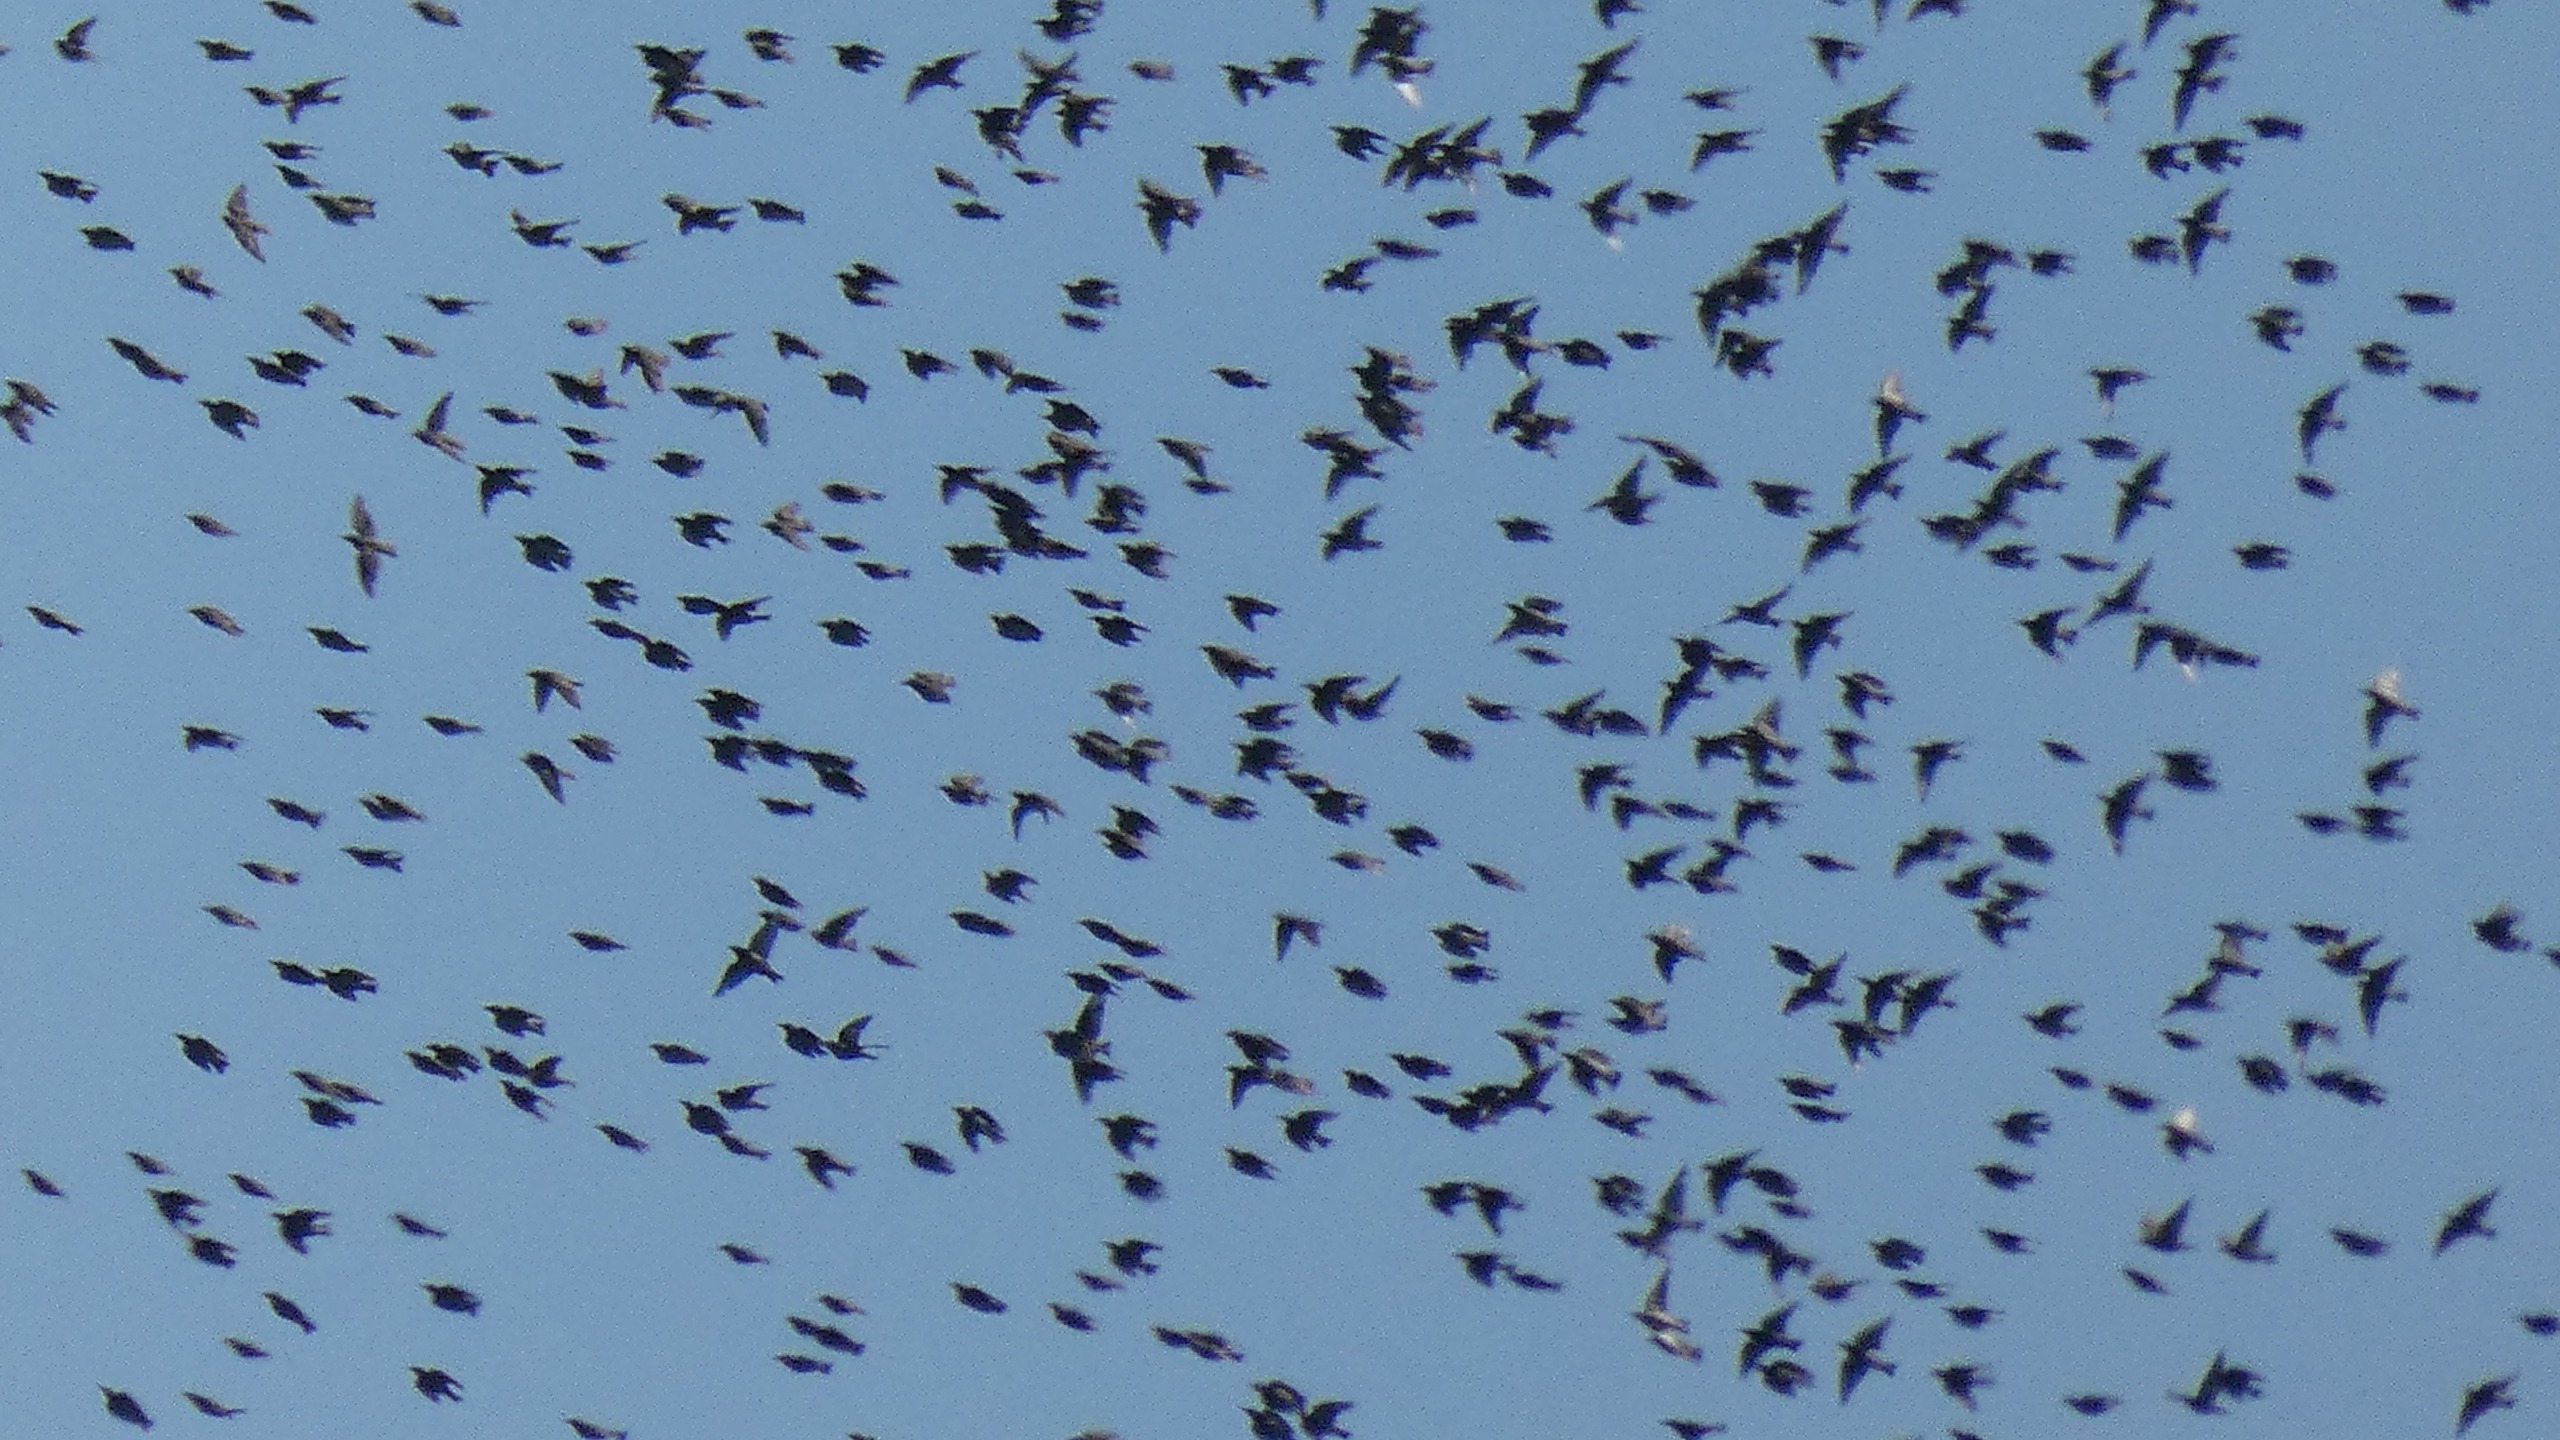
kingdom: Animalia
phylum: Chordata
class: Aves
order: Passeriformes
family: Sturnidae
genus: Sturnus
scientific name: Sturnus vulgaris
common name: Stær
